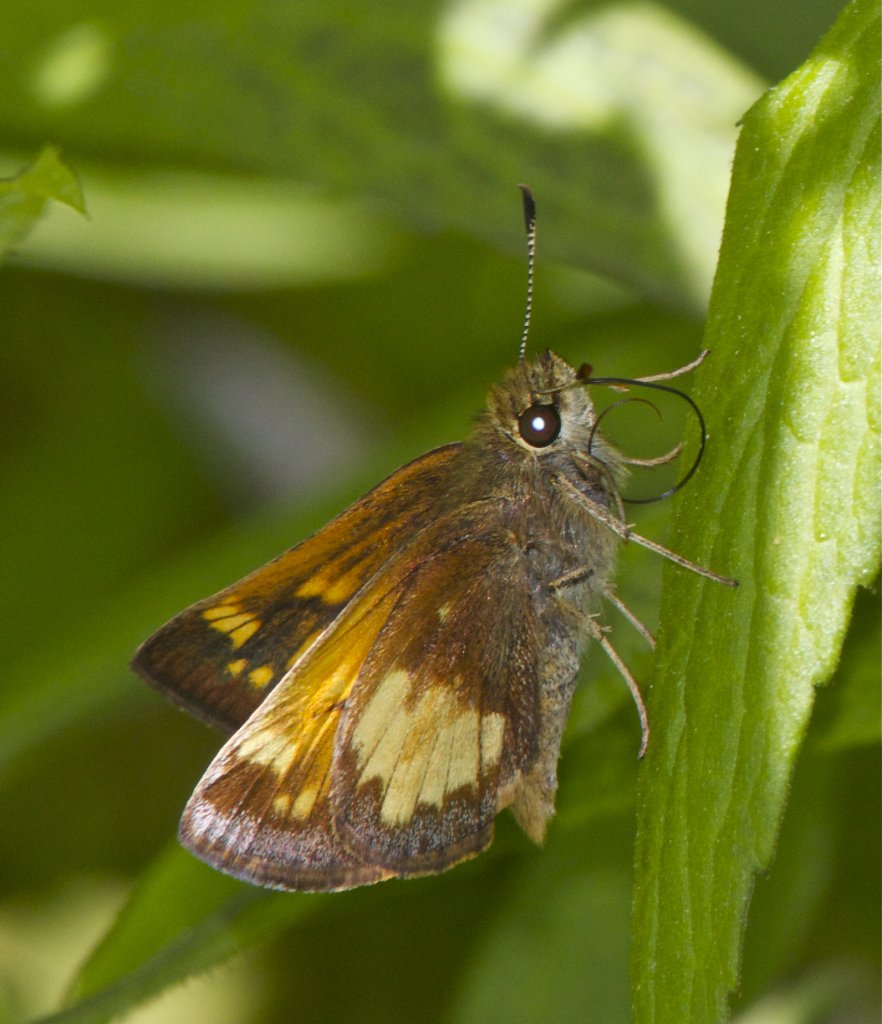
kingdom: Animalia
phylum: Arthropoda
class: Insecta
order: Lepidoptera
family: Hesperiidae
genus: Lon
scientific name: Lon hobomok
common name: Hobomok Skipper
